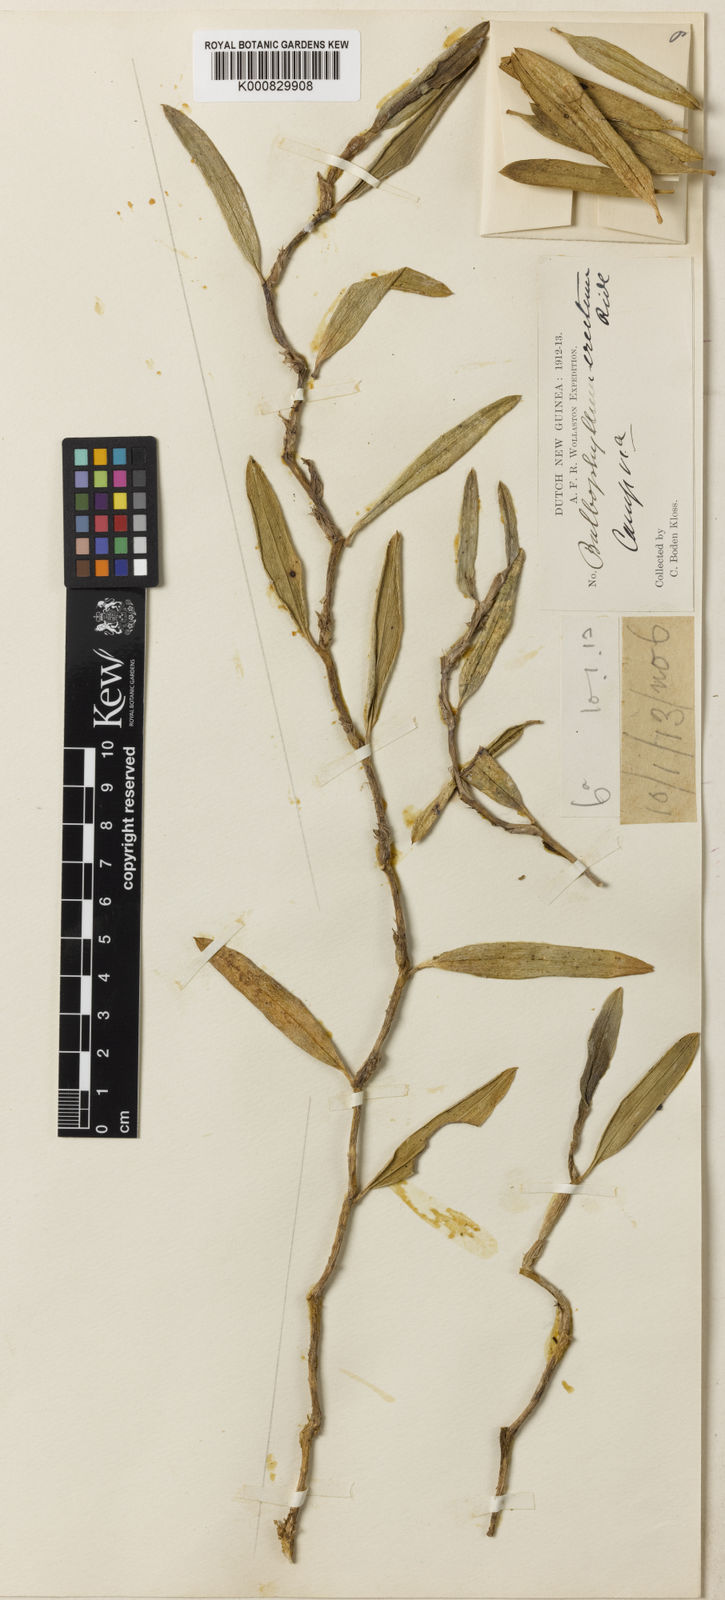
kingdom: Plantae
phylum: Tracheophyta
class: Liliopsida
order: Asparagales
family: Orchidaceae
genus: Bulbophyllum
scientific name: Bulbophyllum habbemense
